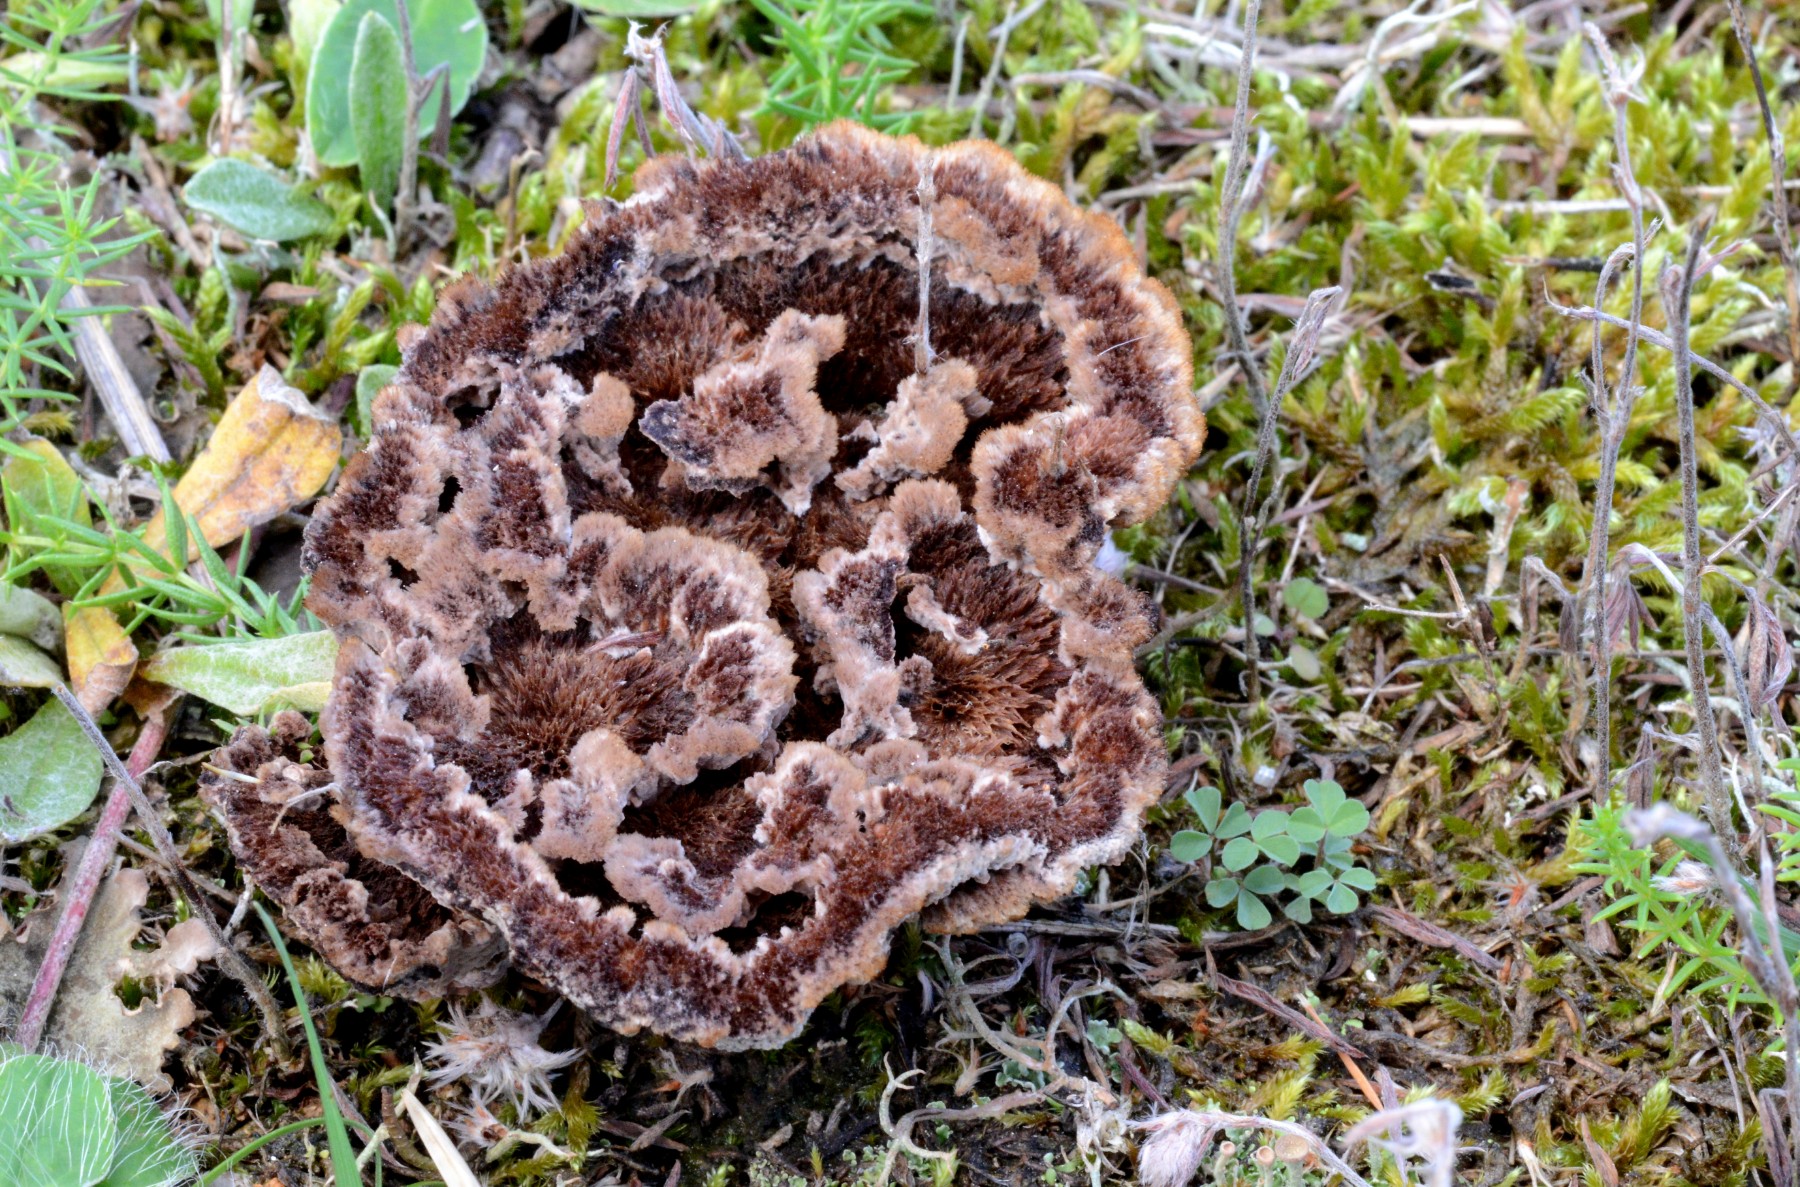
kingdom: Fungi
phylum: Basidiomycota
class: Agaricomycetes
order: Thelephorales
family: Thelephoraceae
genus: Thelephora
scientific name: Thelephora terrestris
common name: fliget frynsesvamp
